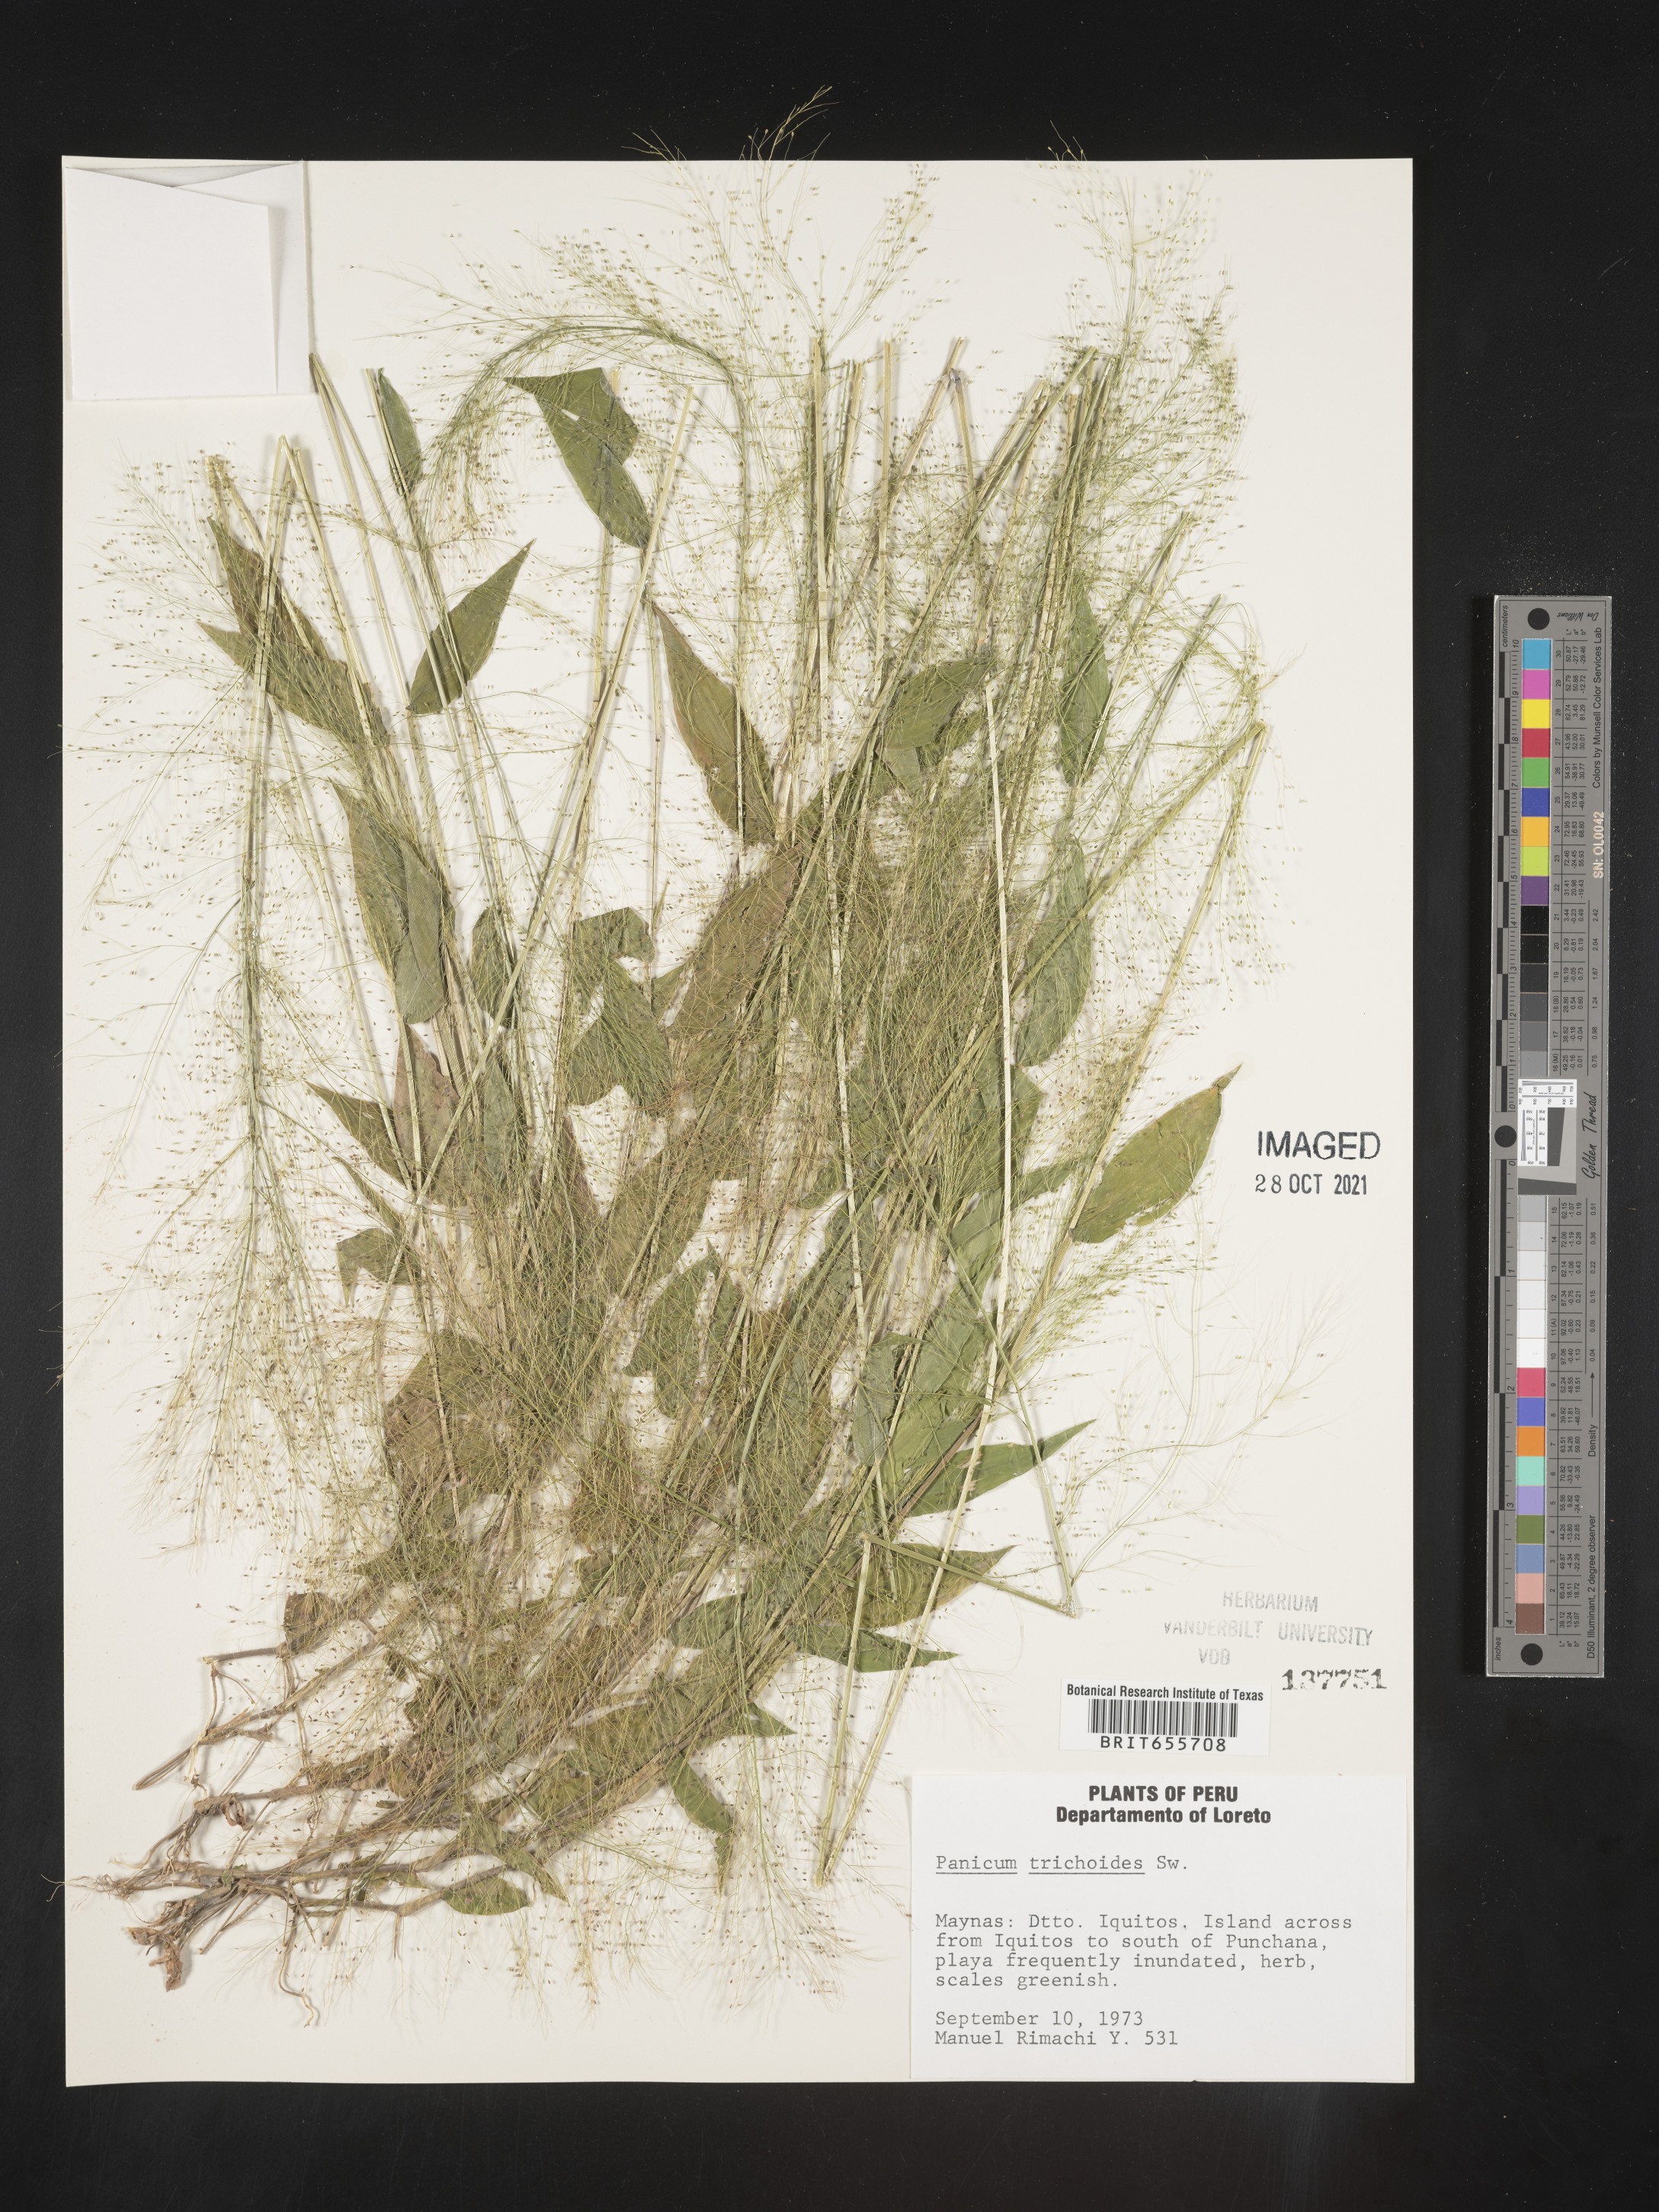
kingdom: Plantae
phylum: Tracheophyta
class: Liliopsida
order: Poales
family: Poaceae
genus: Panicum
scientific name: Panicum
